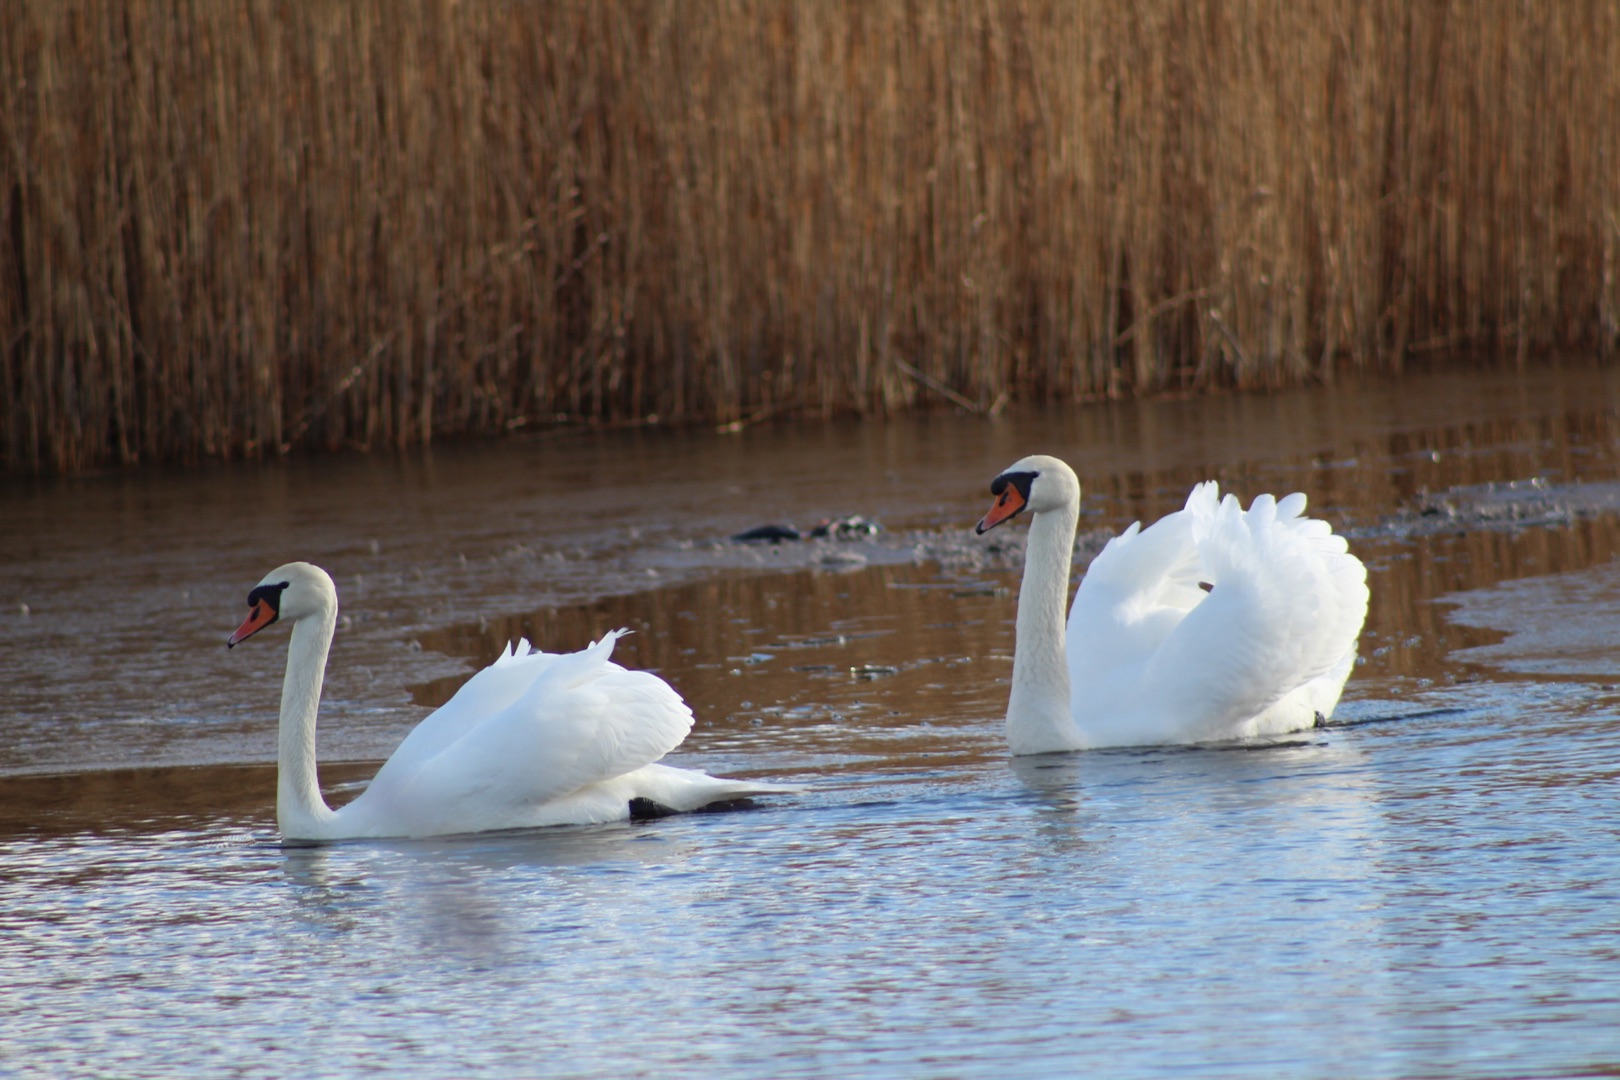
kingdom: Animalia
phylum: Chordata
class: Aves
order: Anseriformes
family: Anatidae
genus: Cygnus
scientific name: Cygnus olor
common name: Knopsvane
